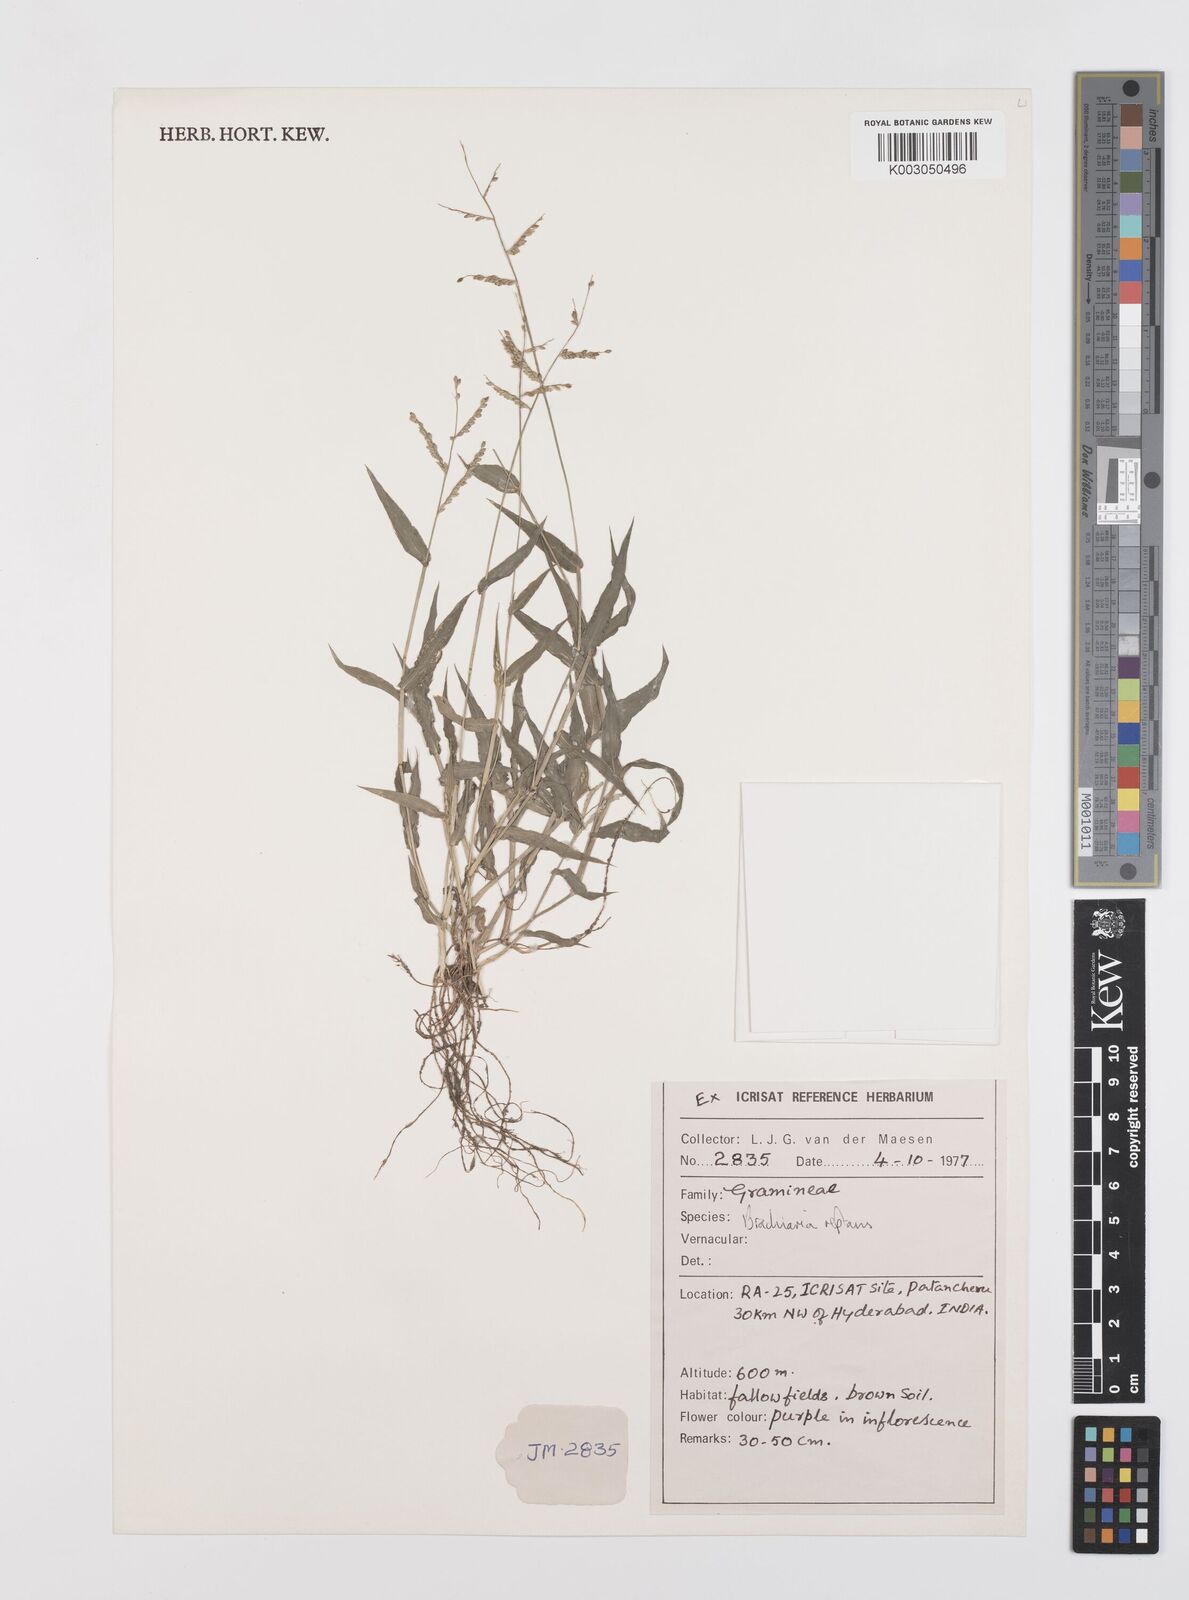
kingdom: Plantae
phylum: Tracheophyta
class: Liliopsida
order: Poales
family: Poaceae
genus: Urochloa
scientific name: Urochloa reptans
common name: Sprawling signalgrass
